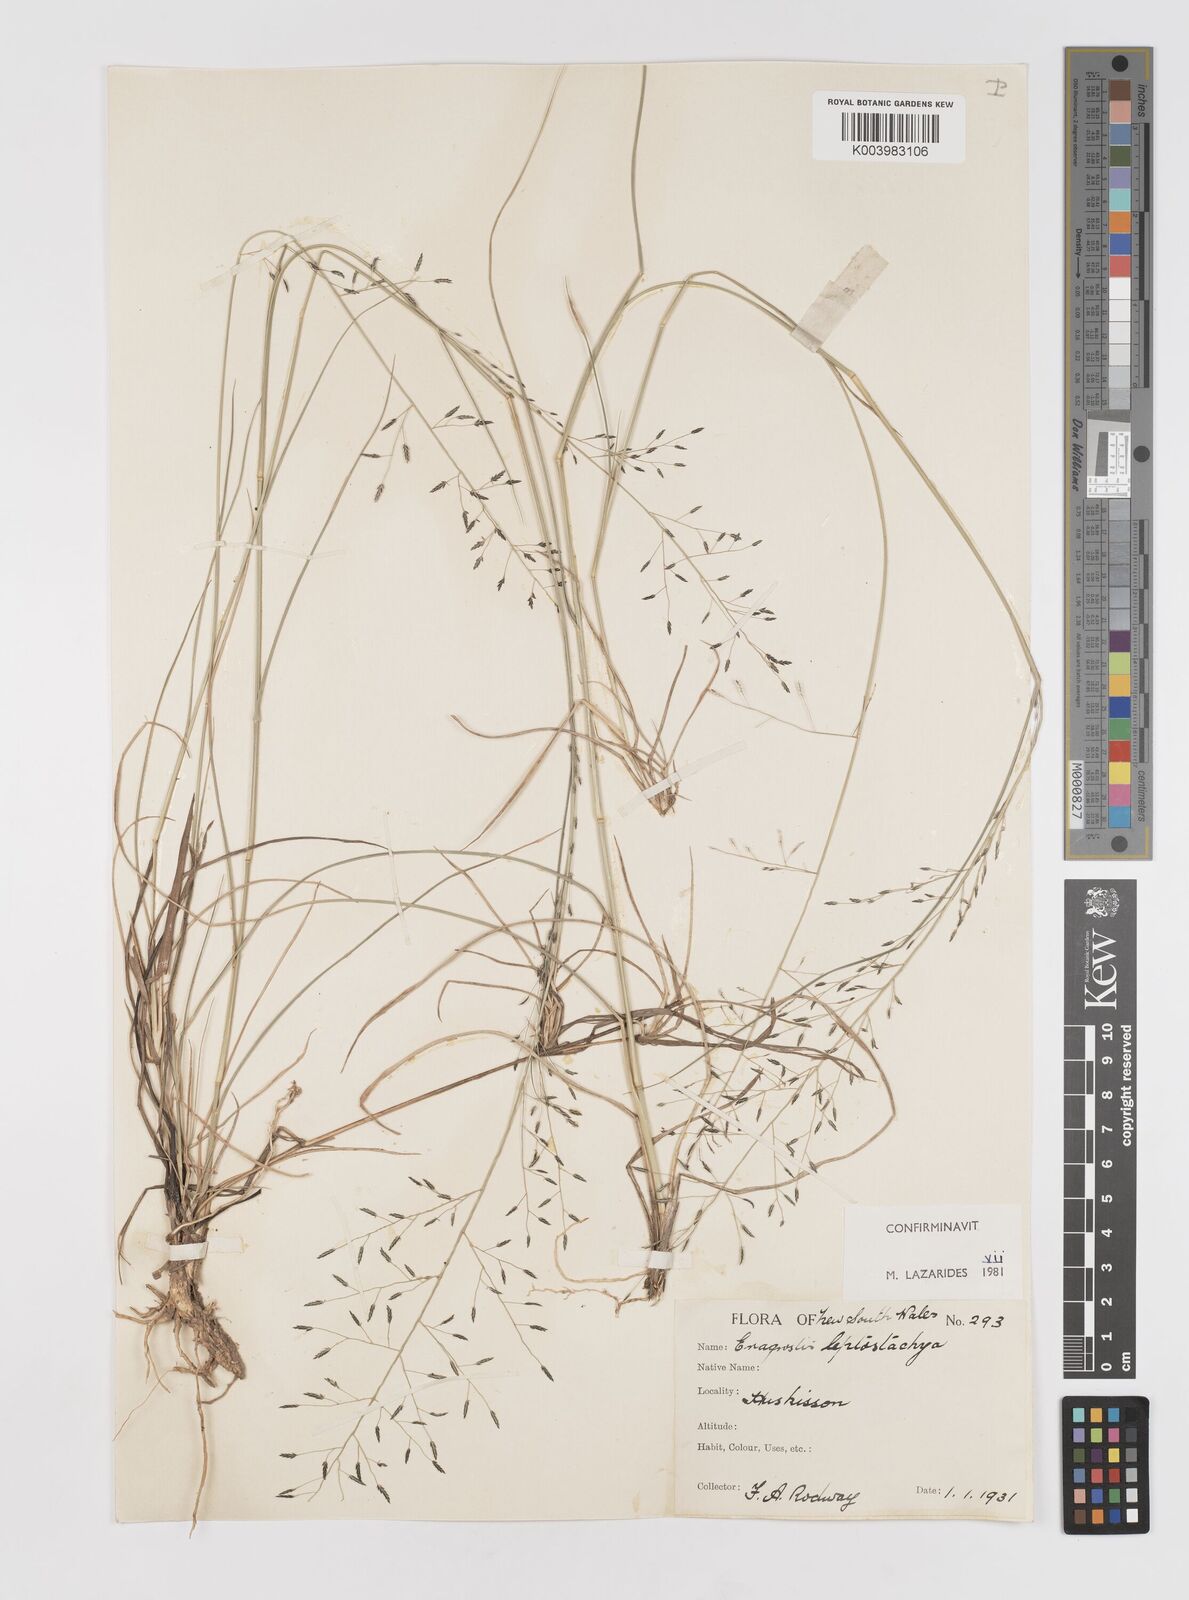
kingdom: Plantae
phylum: Tracheophyta
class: Liliopsida
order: Poales
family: Poaceae
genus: Eragrostis
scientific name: Eragrostis leptostachya
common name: Australian lovegrass
